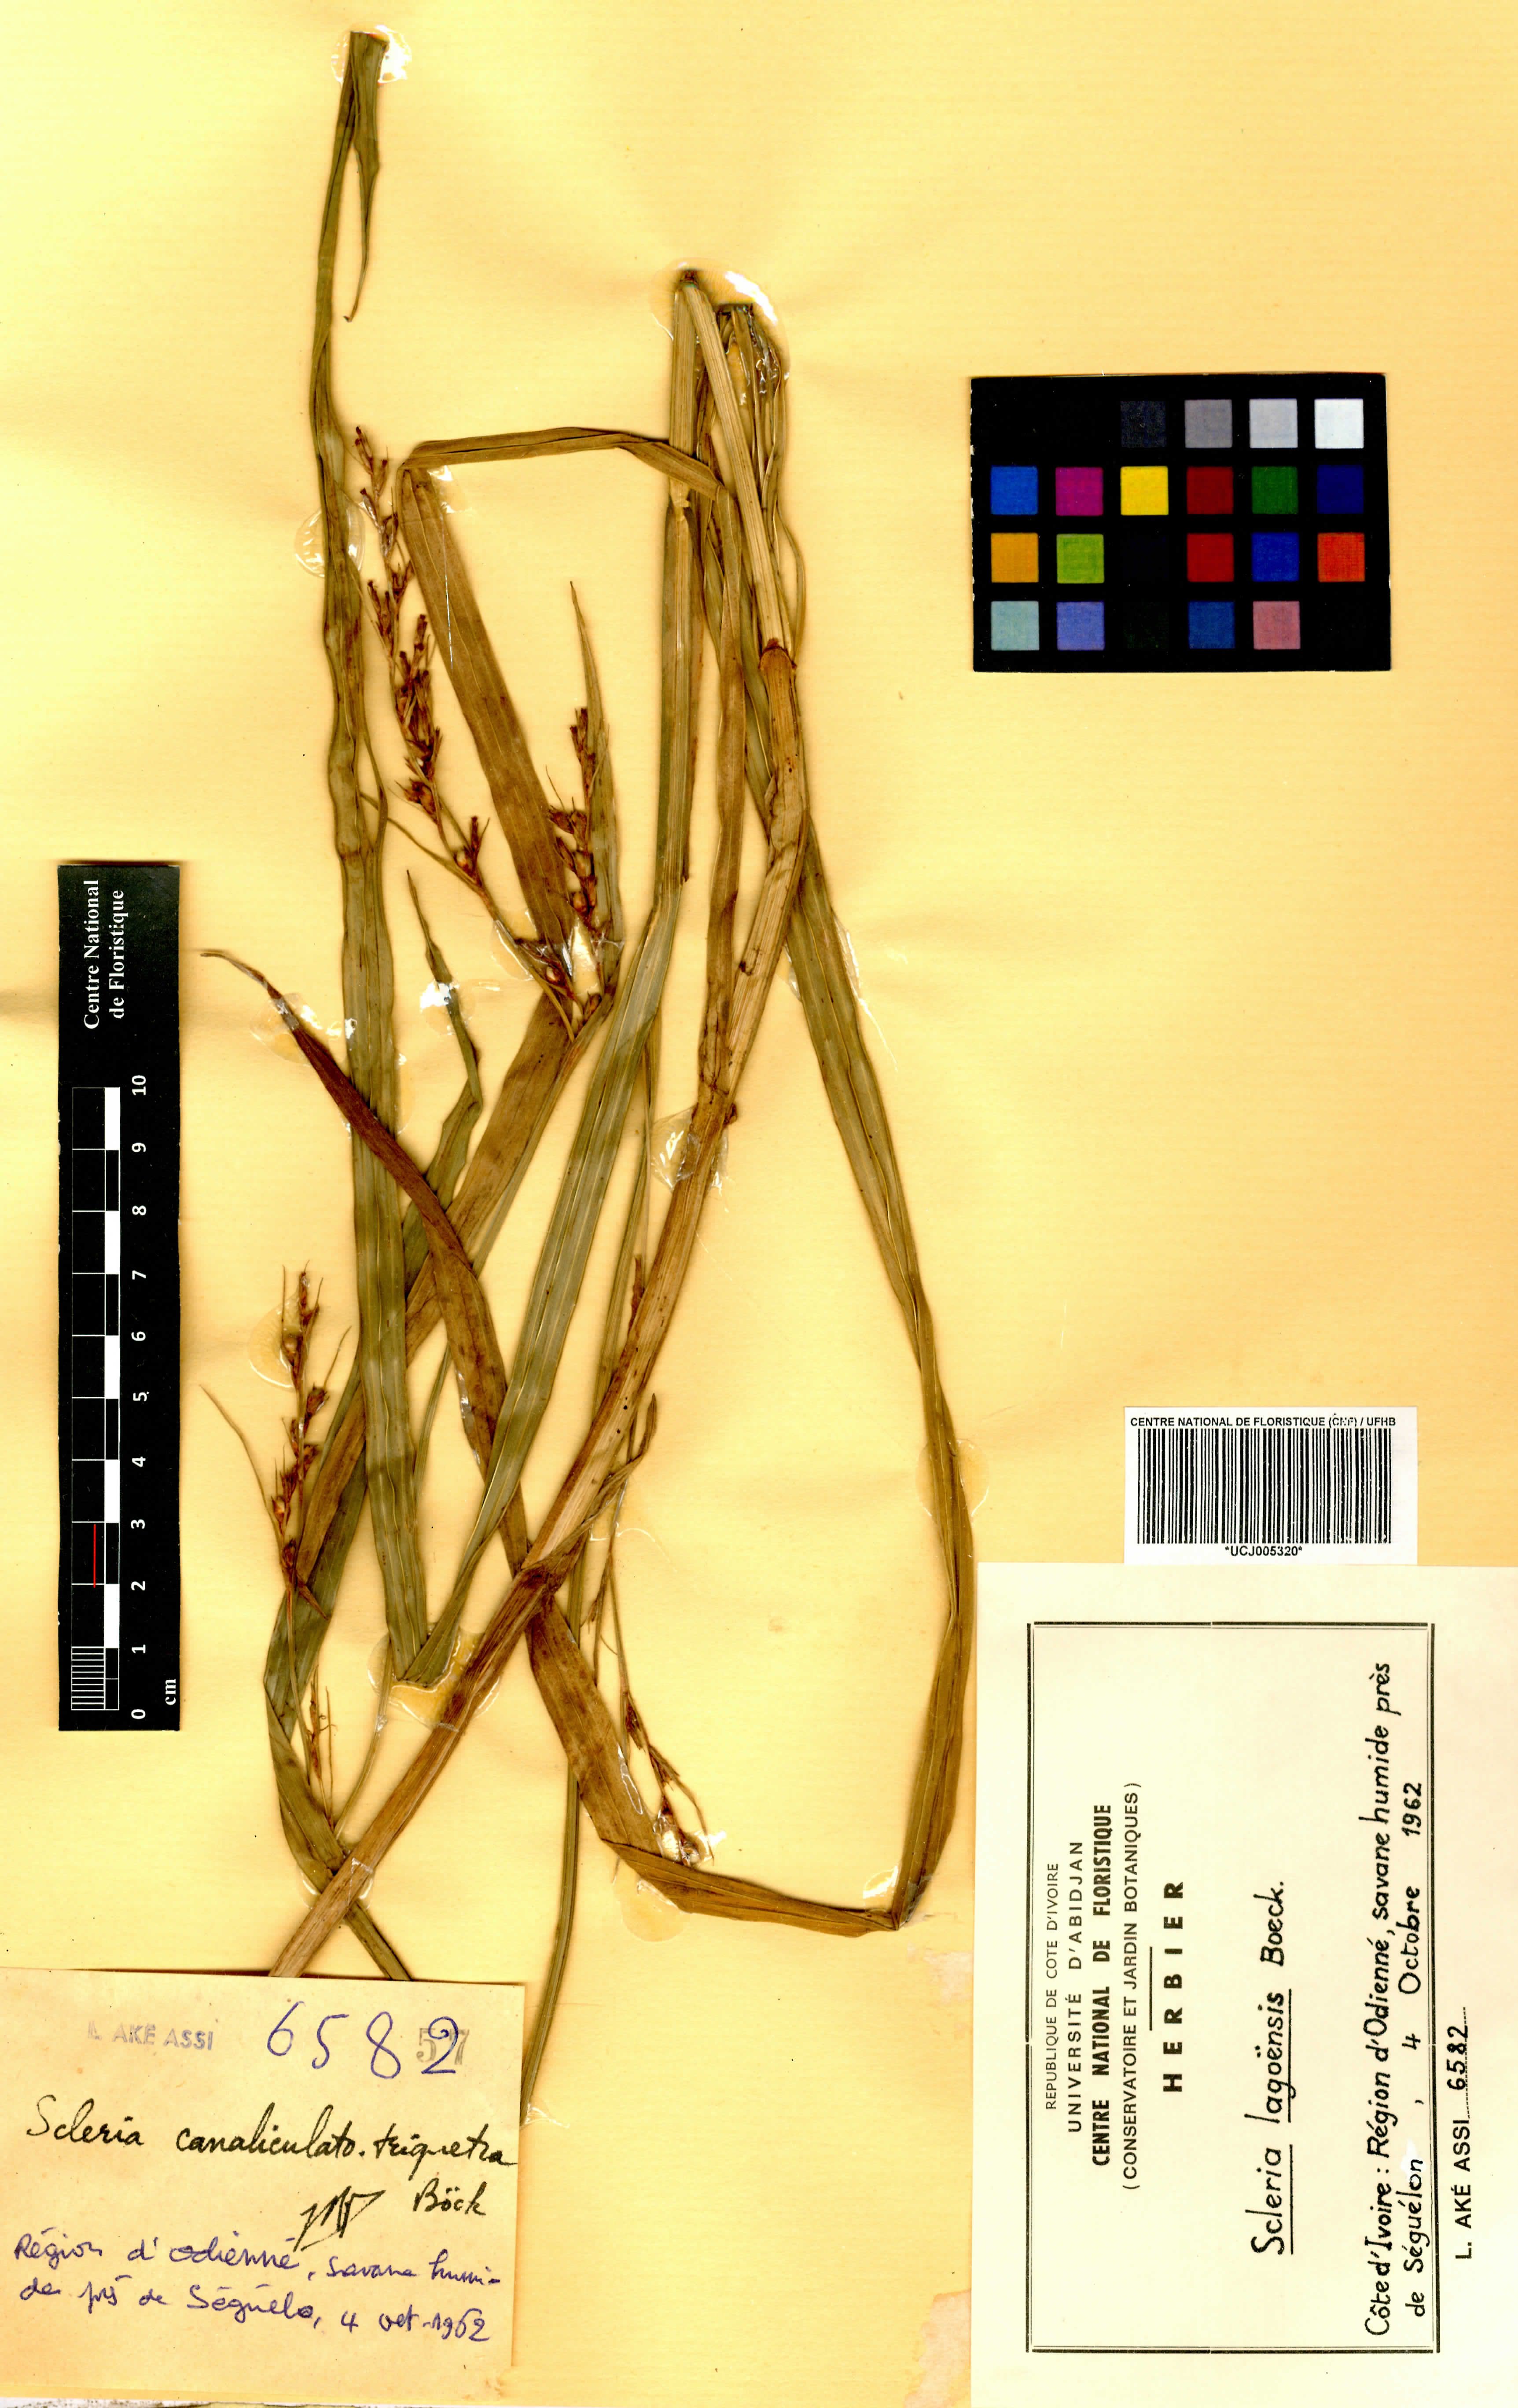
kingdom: Plantae
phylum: Tracheophyta
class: Liliopsida
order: Poales
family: Cyperaceae
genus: Scleria
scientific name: Scleria lagoensis
